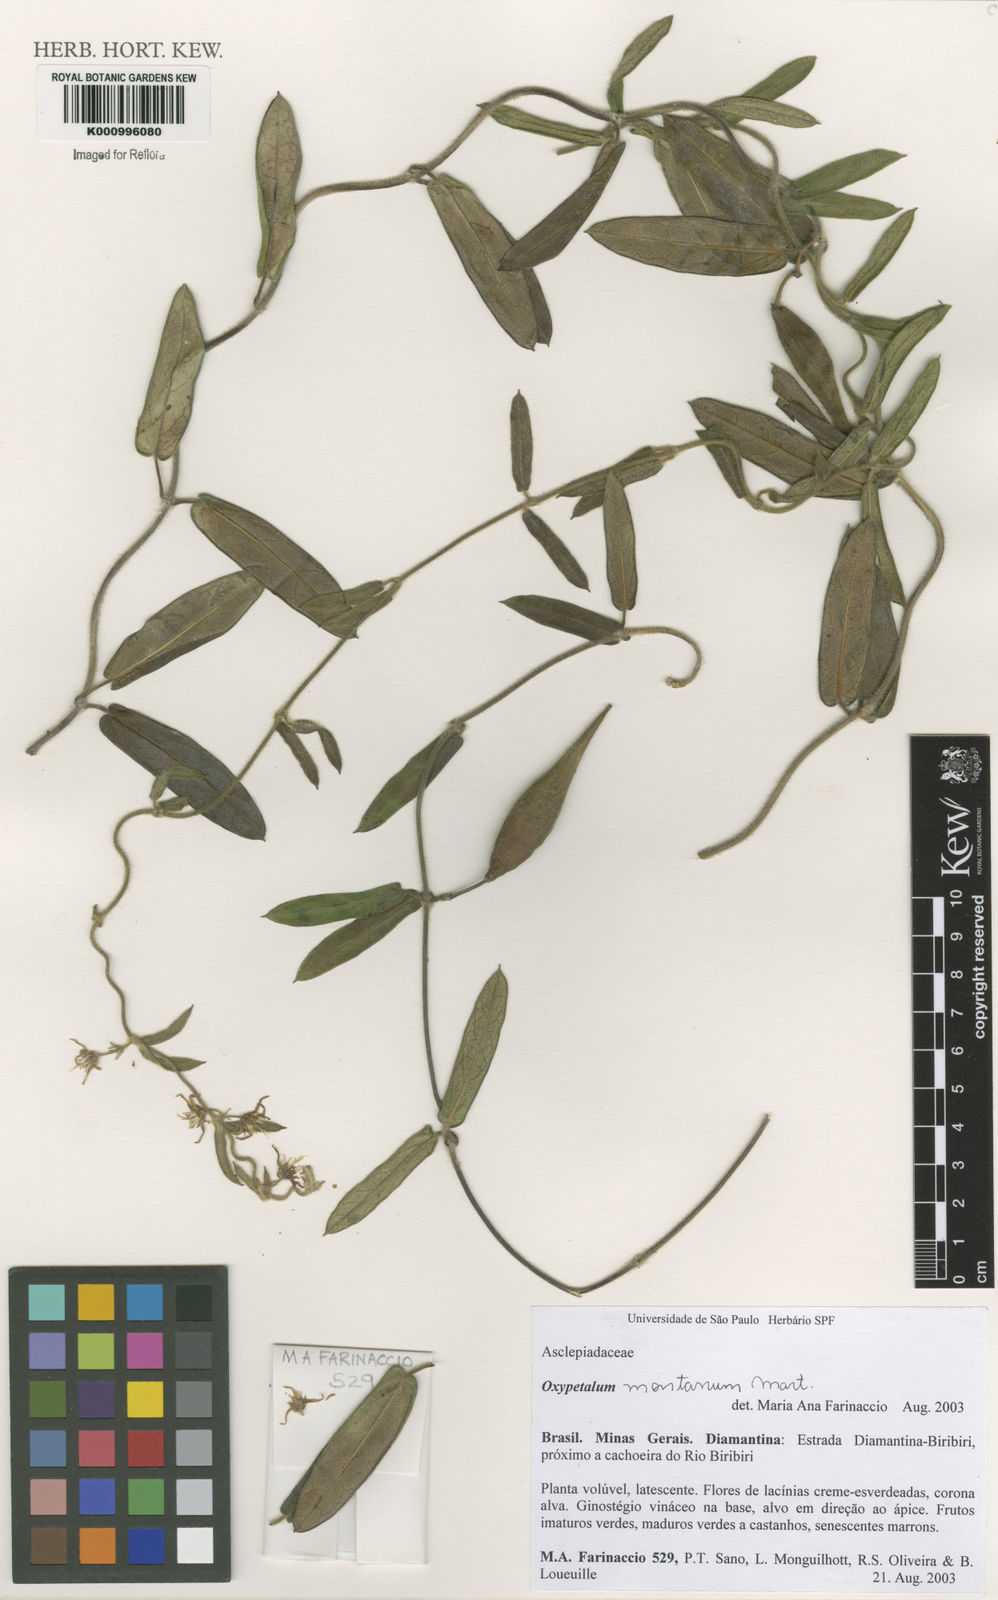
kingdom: Plantae
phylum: Tracheophyta
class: Magnoliopsida
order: Gentianales
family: Apocynaceae
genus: Oxypetalum
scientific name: Oxypetalum montanum
